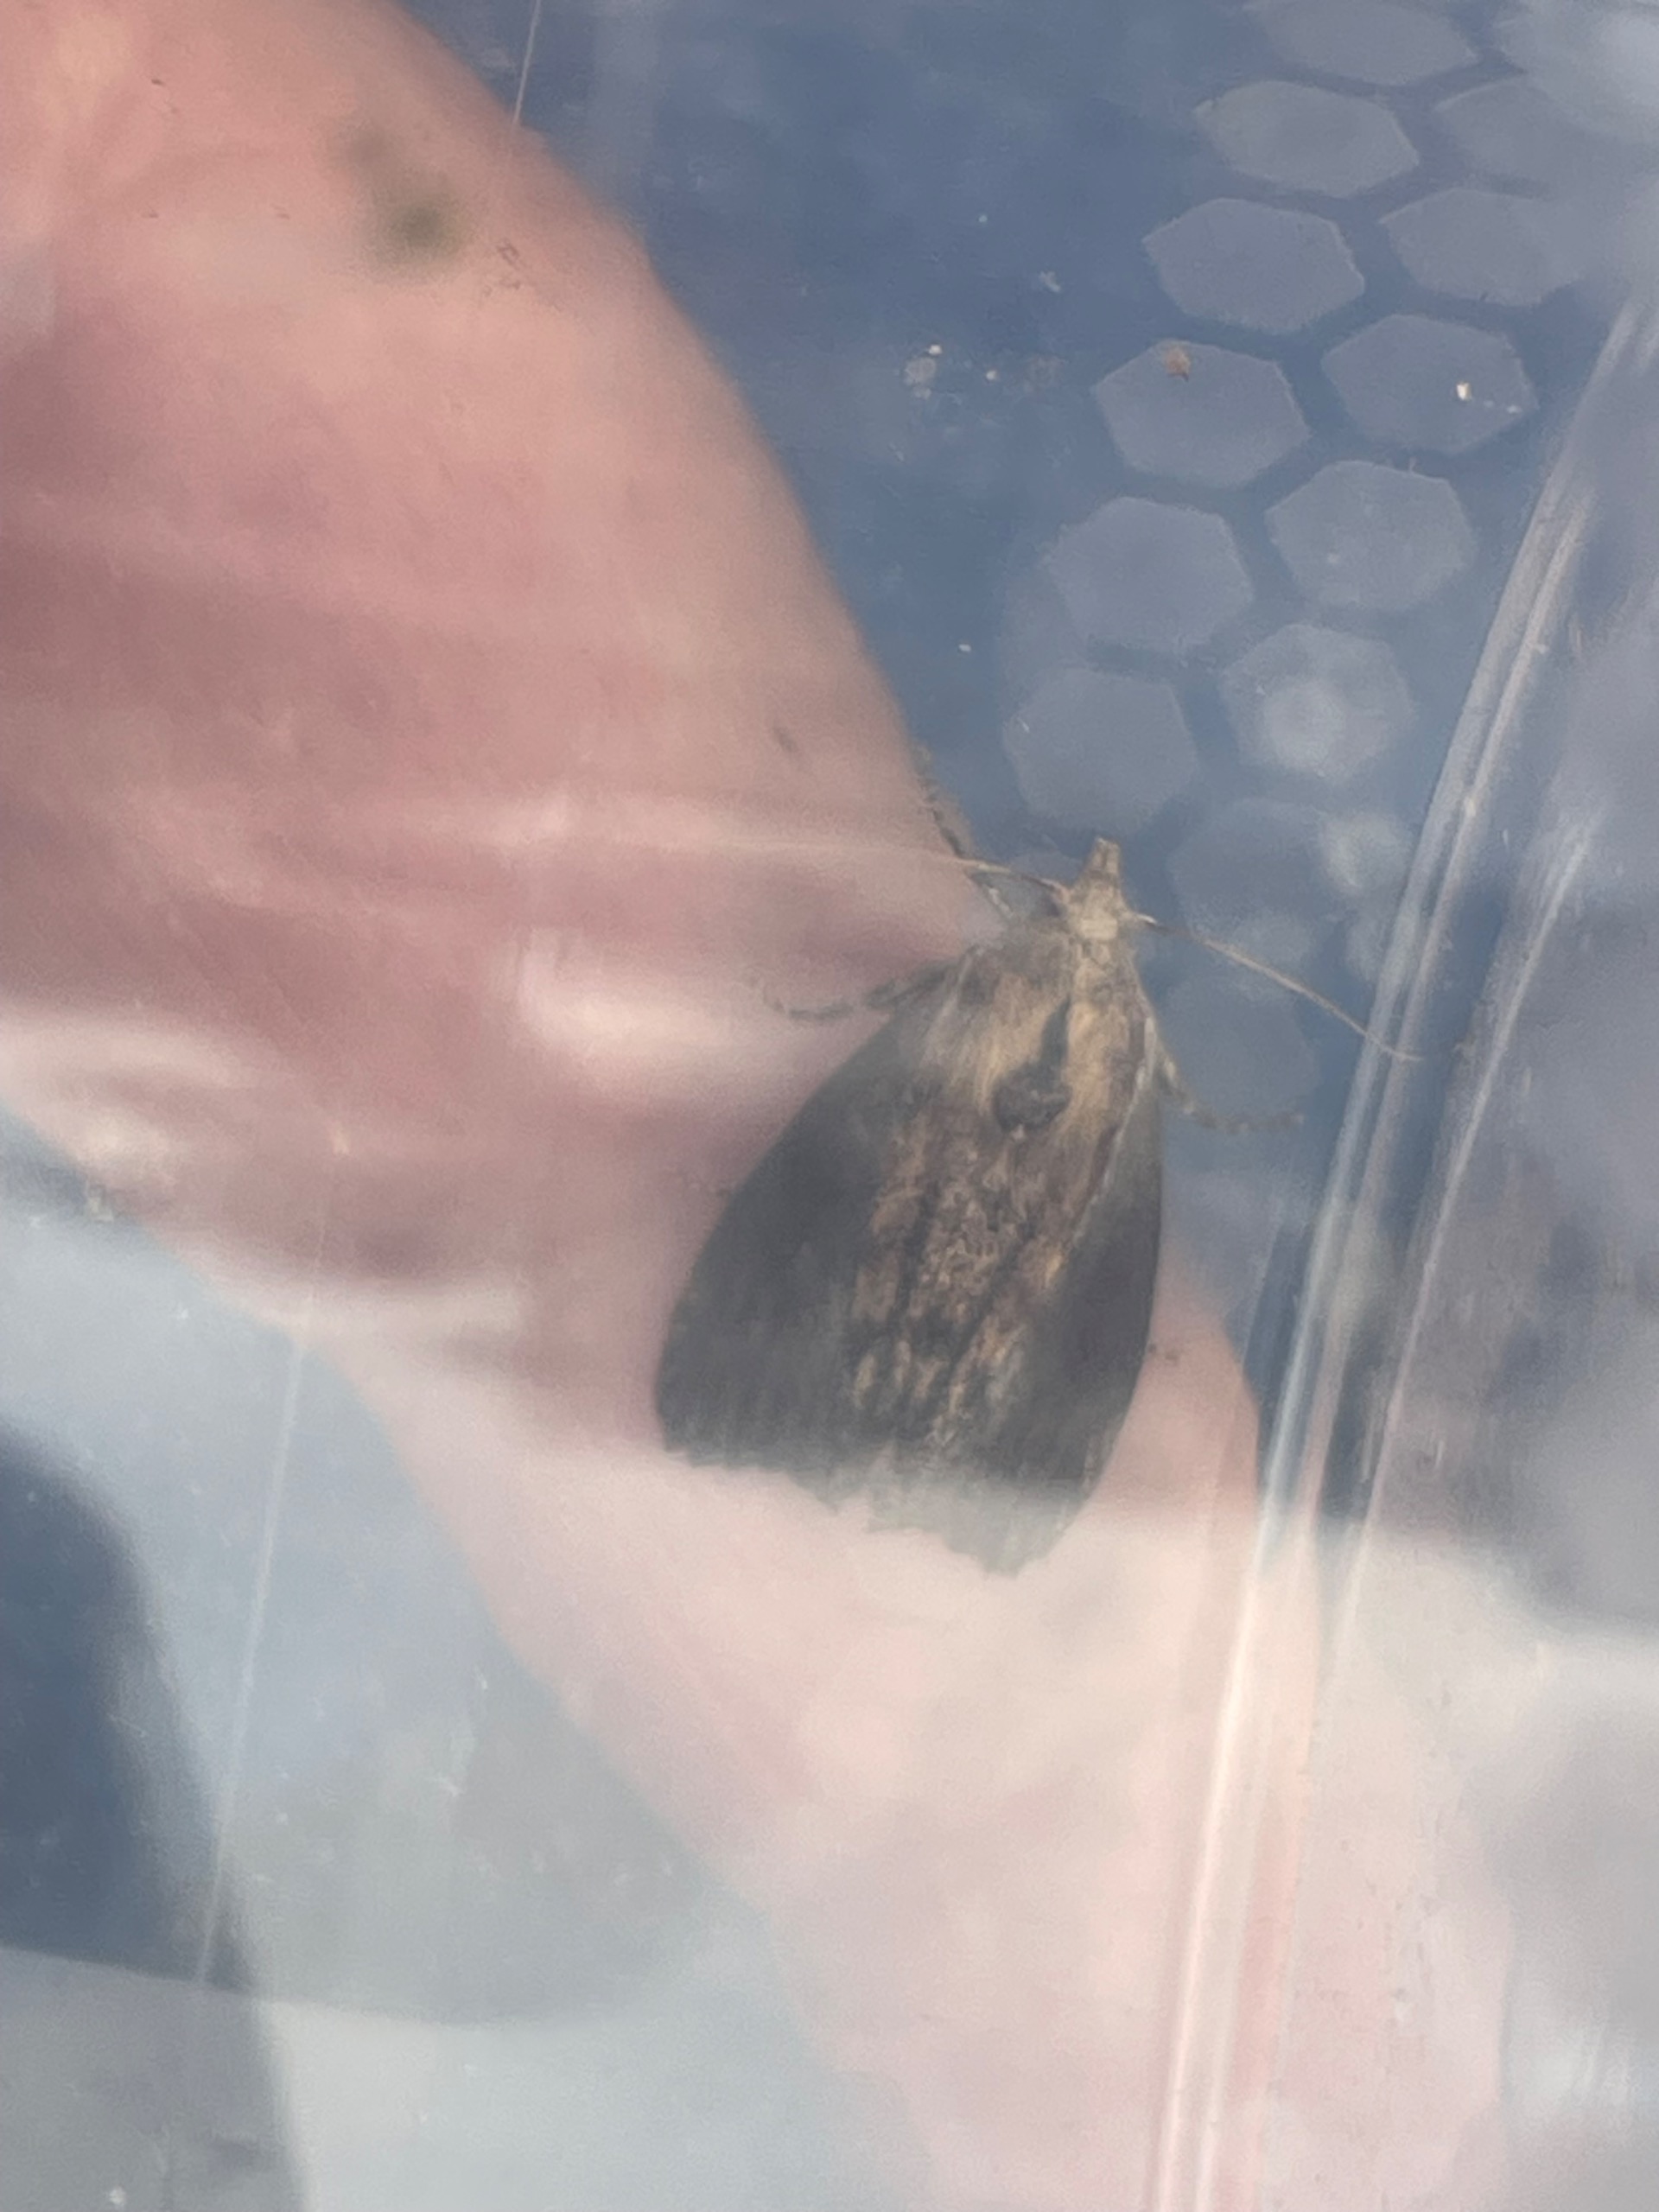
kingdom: Animalia
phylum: Arthropoda
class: Insecta
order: Lepidoptera
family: Pyralidae
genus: Galleria
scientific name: Galleria mellonella
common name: Stort voksmøl
